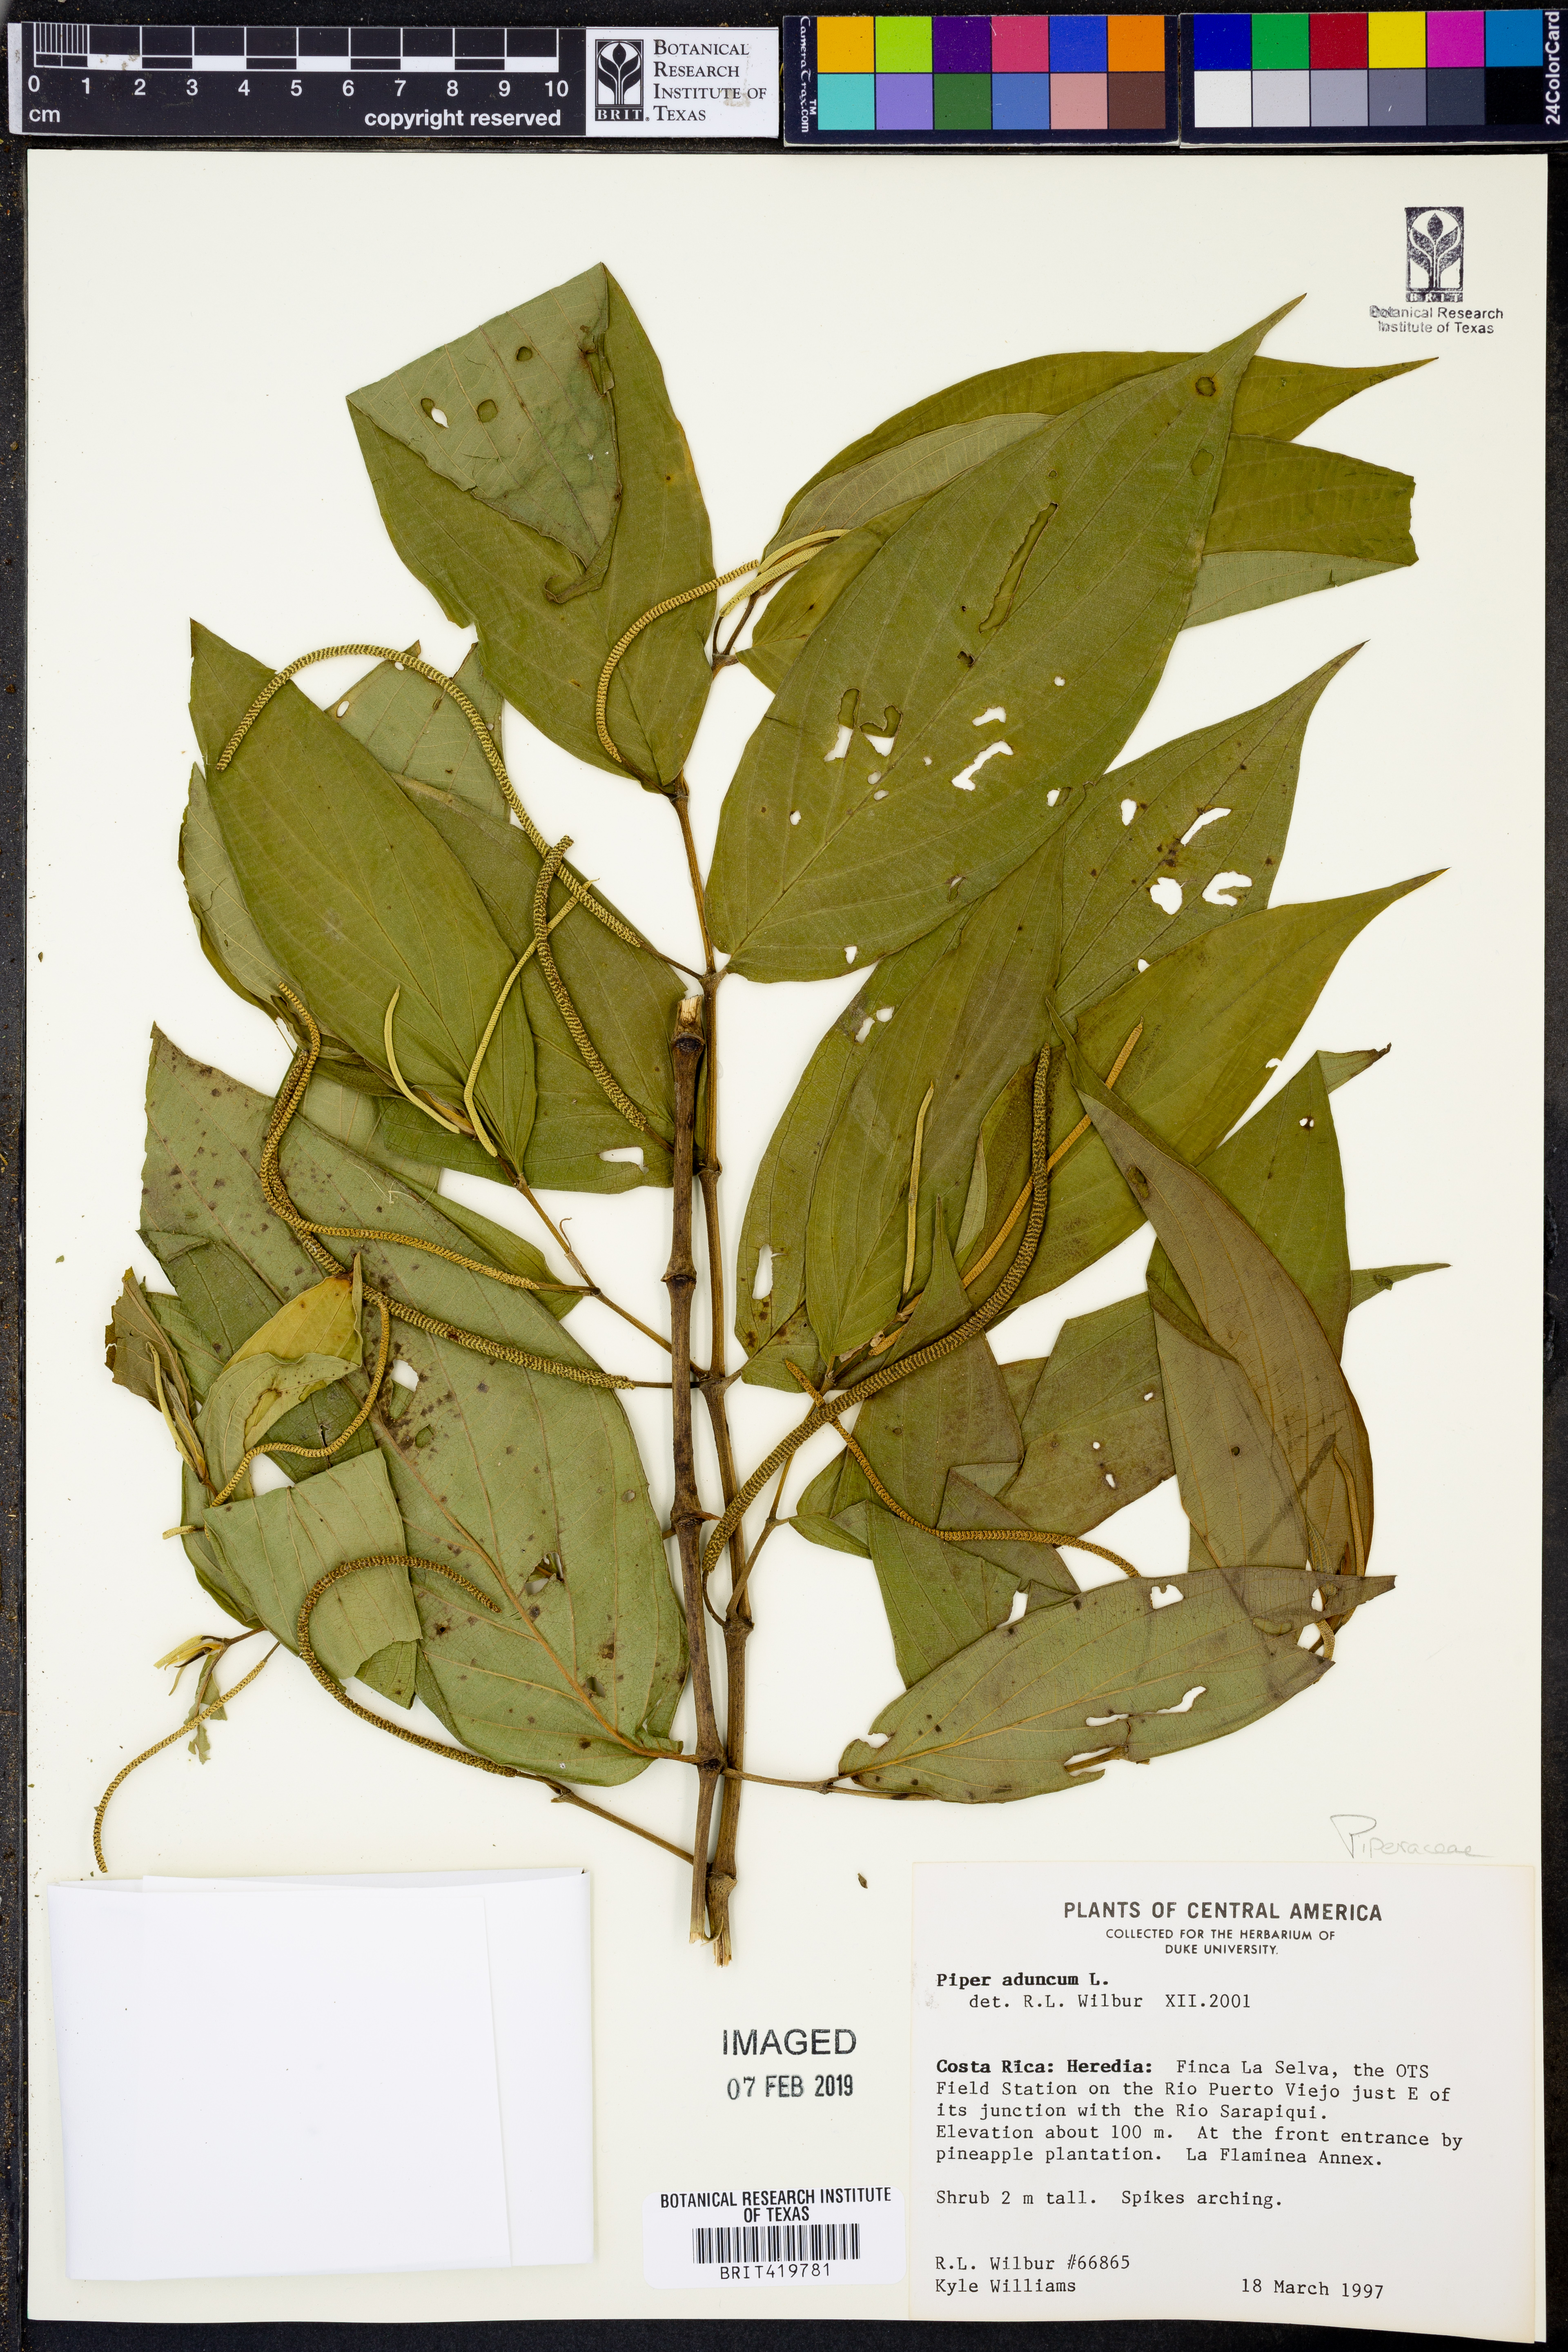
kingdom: Plantae
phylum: Tracheophyta
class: Magnoliopsida
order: Piperales
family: Piperaceae
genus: Piper
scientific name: Piper aduncum
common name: Spiked pepper
